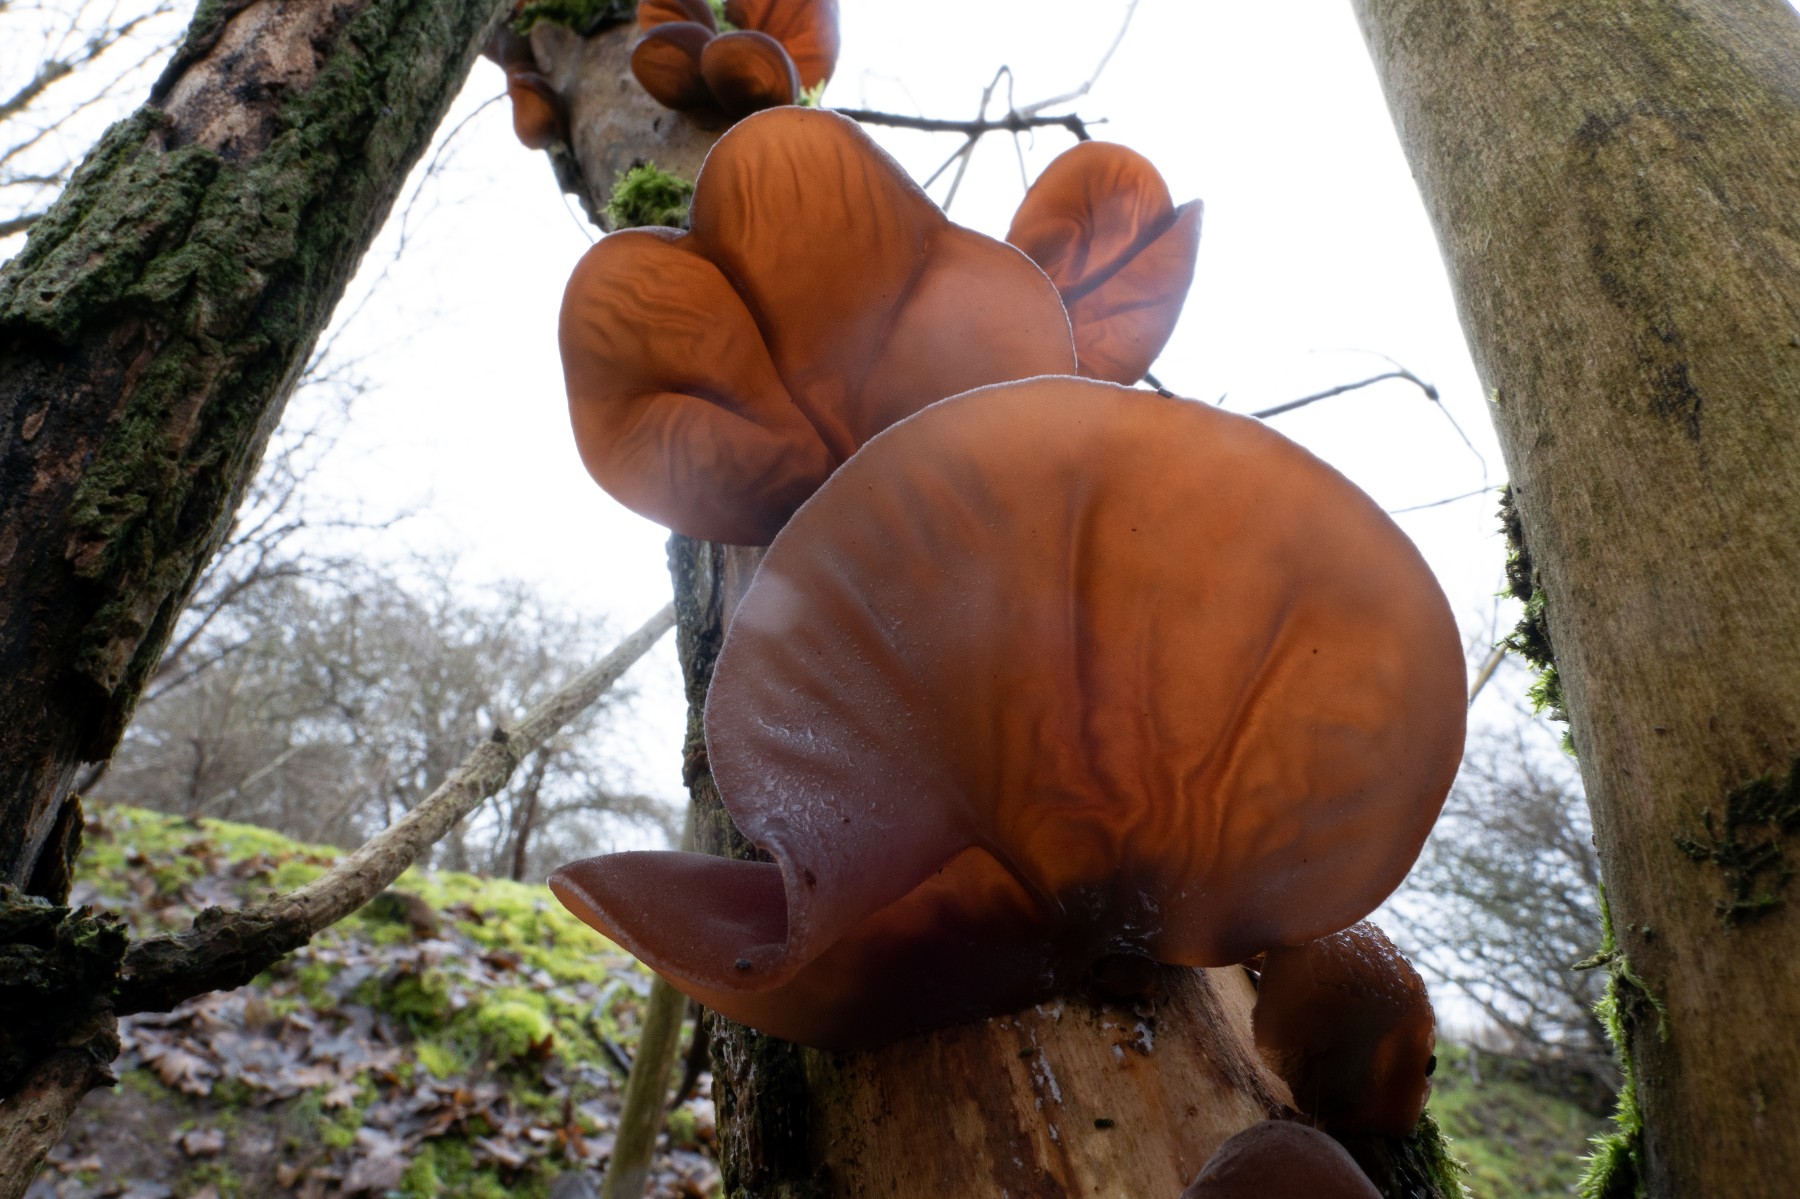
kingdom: Fungi
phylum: Basidiomycota
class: Agaricomycetes
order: Auriculariales
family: Auriculariaceae
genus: Auricularia
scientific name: Auricularia auricula-judae
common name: almindelig judasøre
